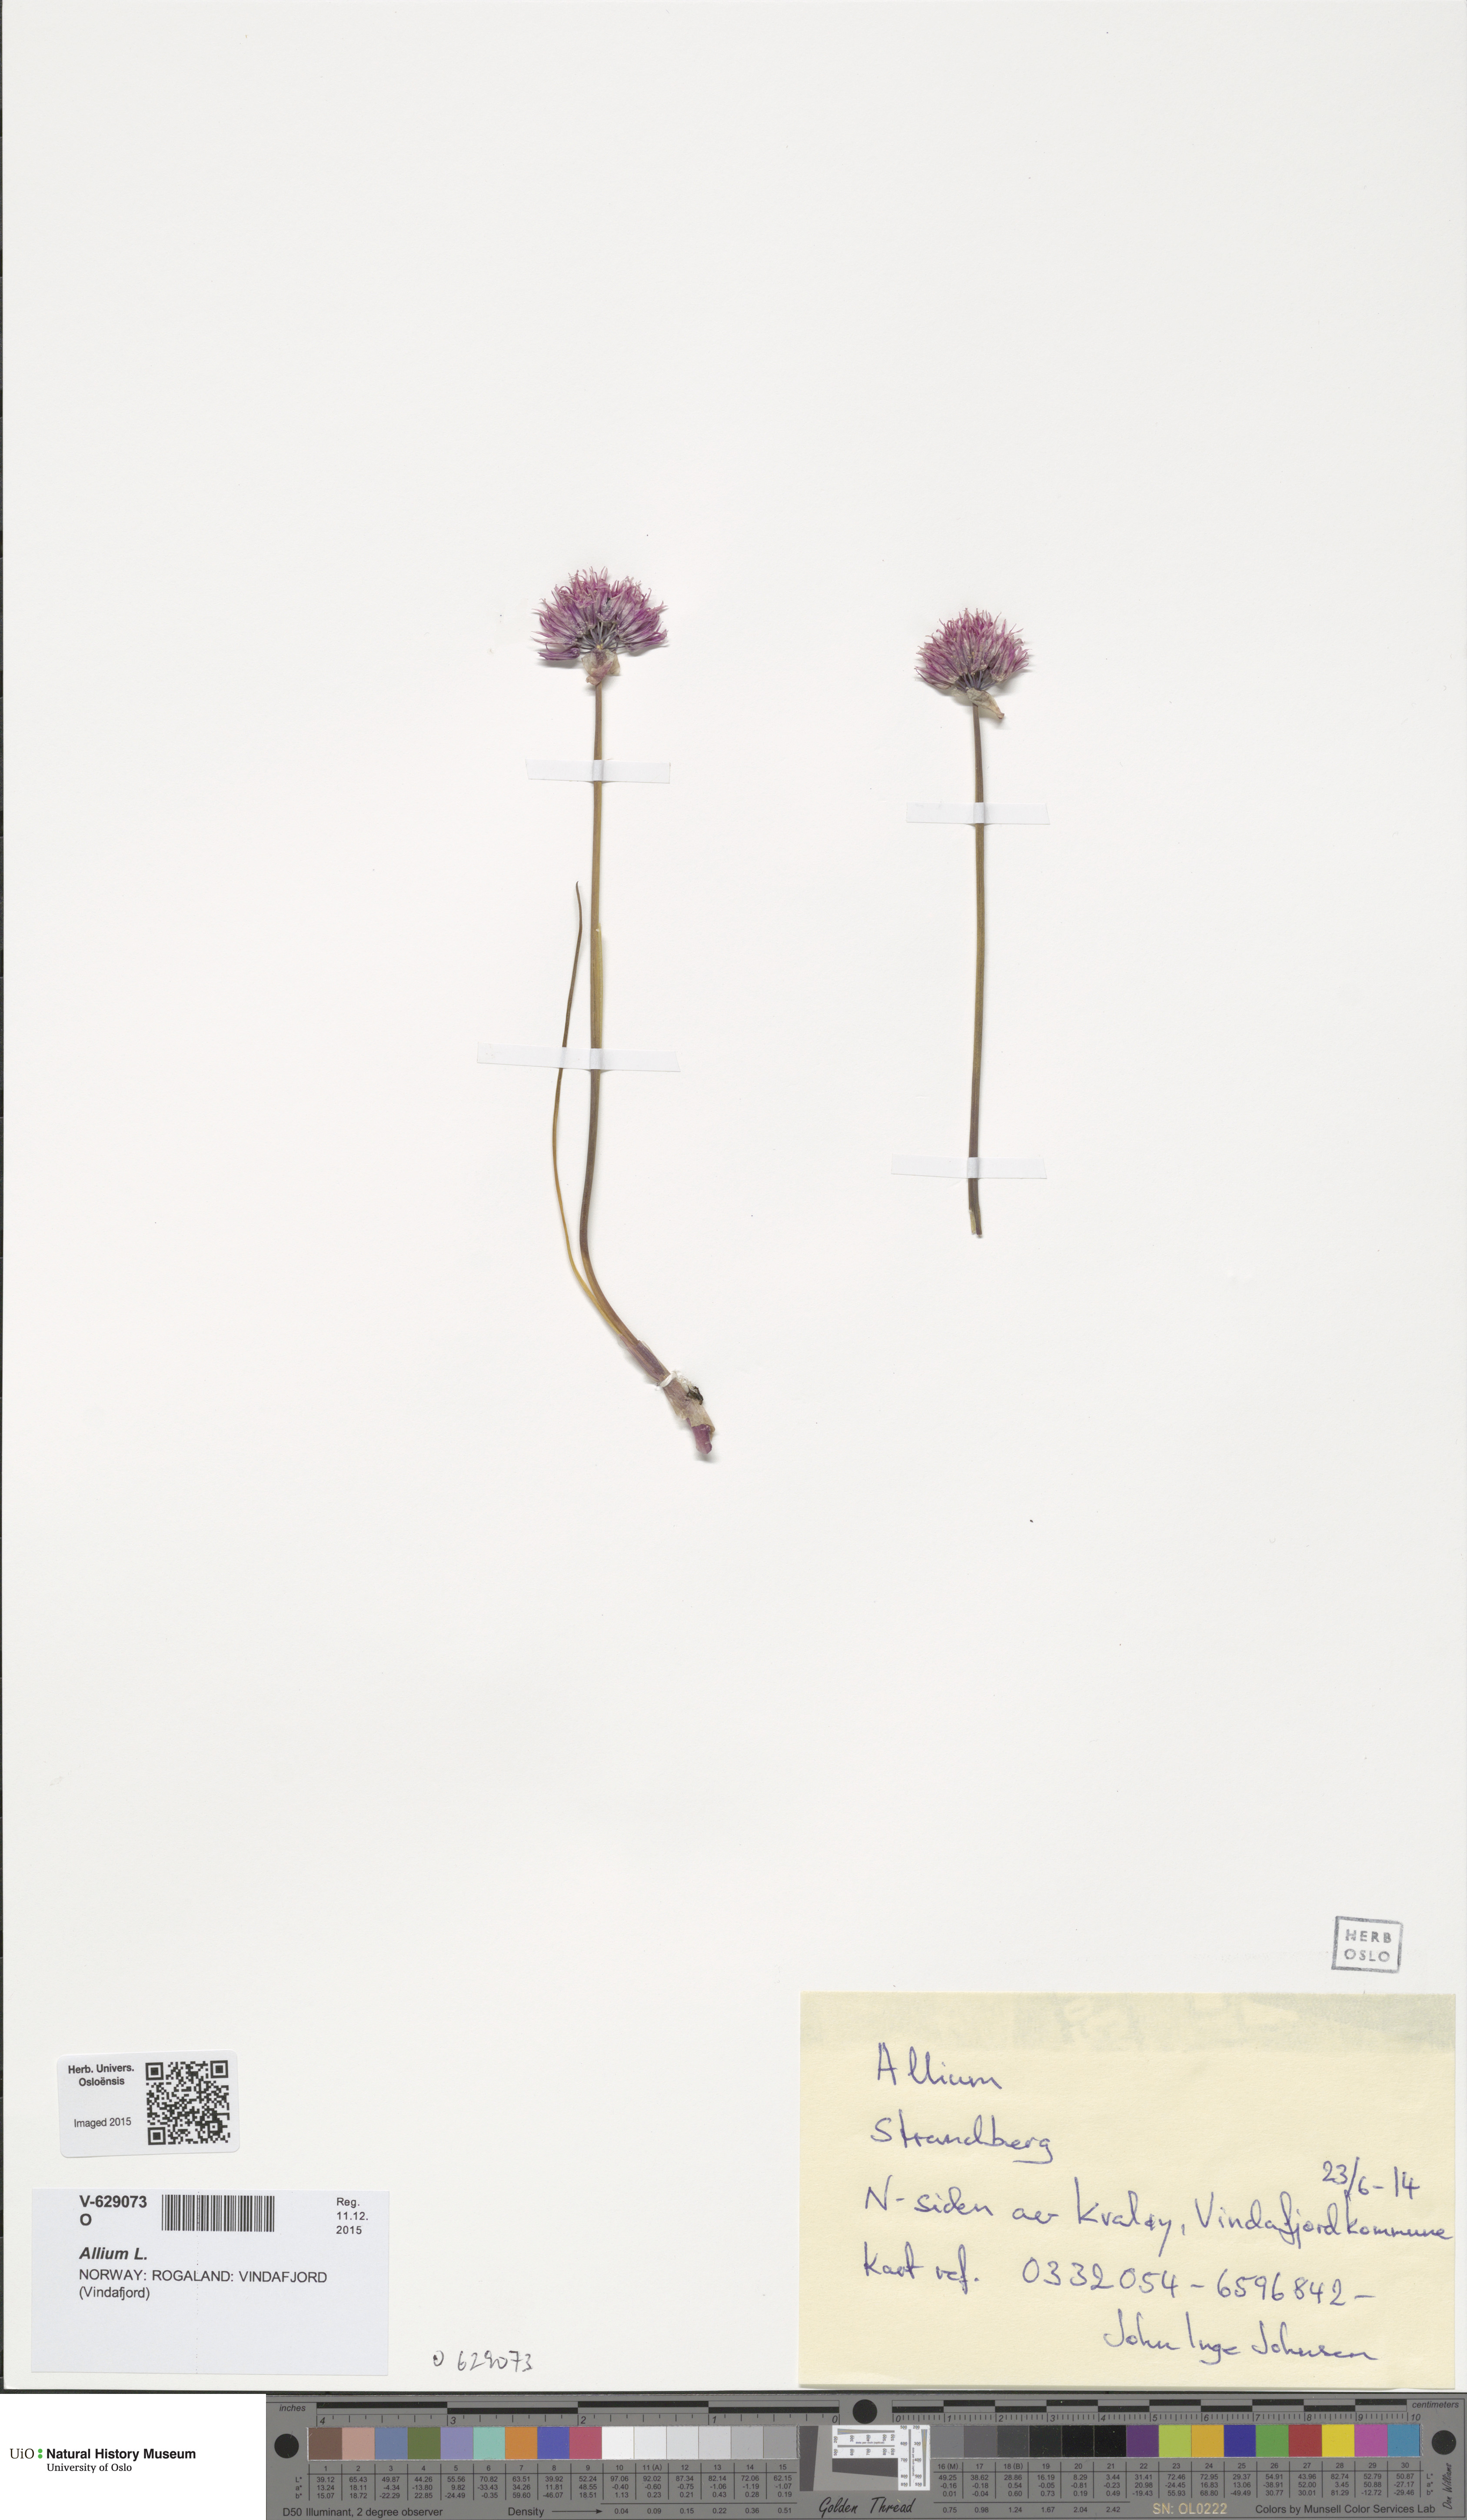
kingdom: Plantae
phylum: Tracheophyta
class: Liliopsida
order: Asparagales
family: Amaryllidaceae
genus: Allium
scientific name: Allium
